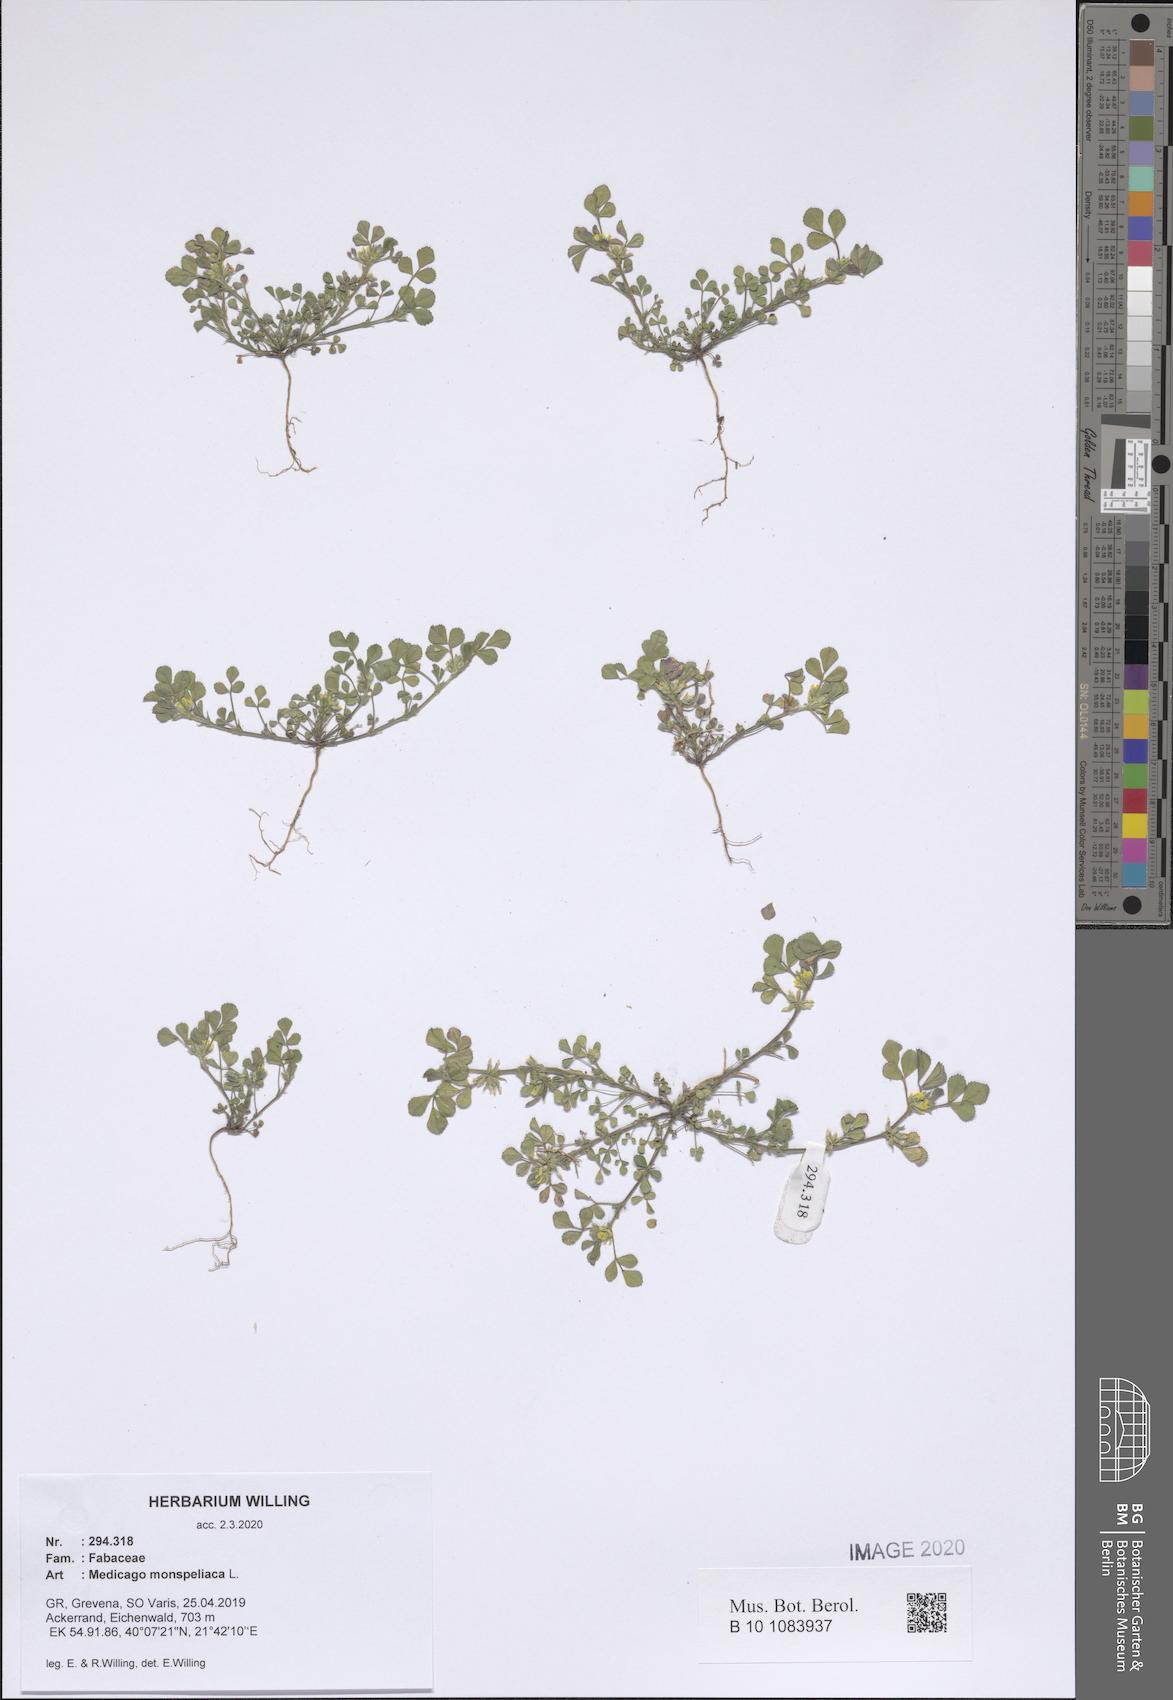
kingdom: Plantae
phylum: Tracheophyta
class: Magnoliopsida
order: Fabales
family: Fabaceae
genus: Medicago
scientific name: Medicago monspeliaca
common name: Hairy medick
